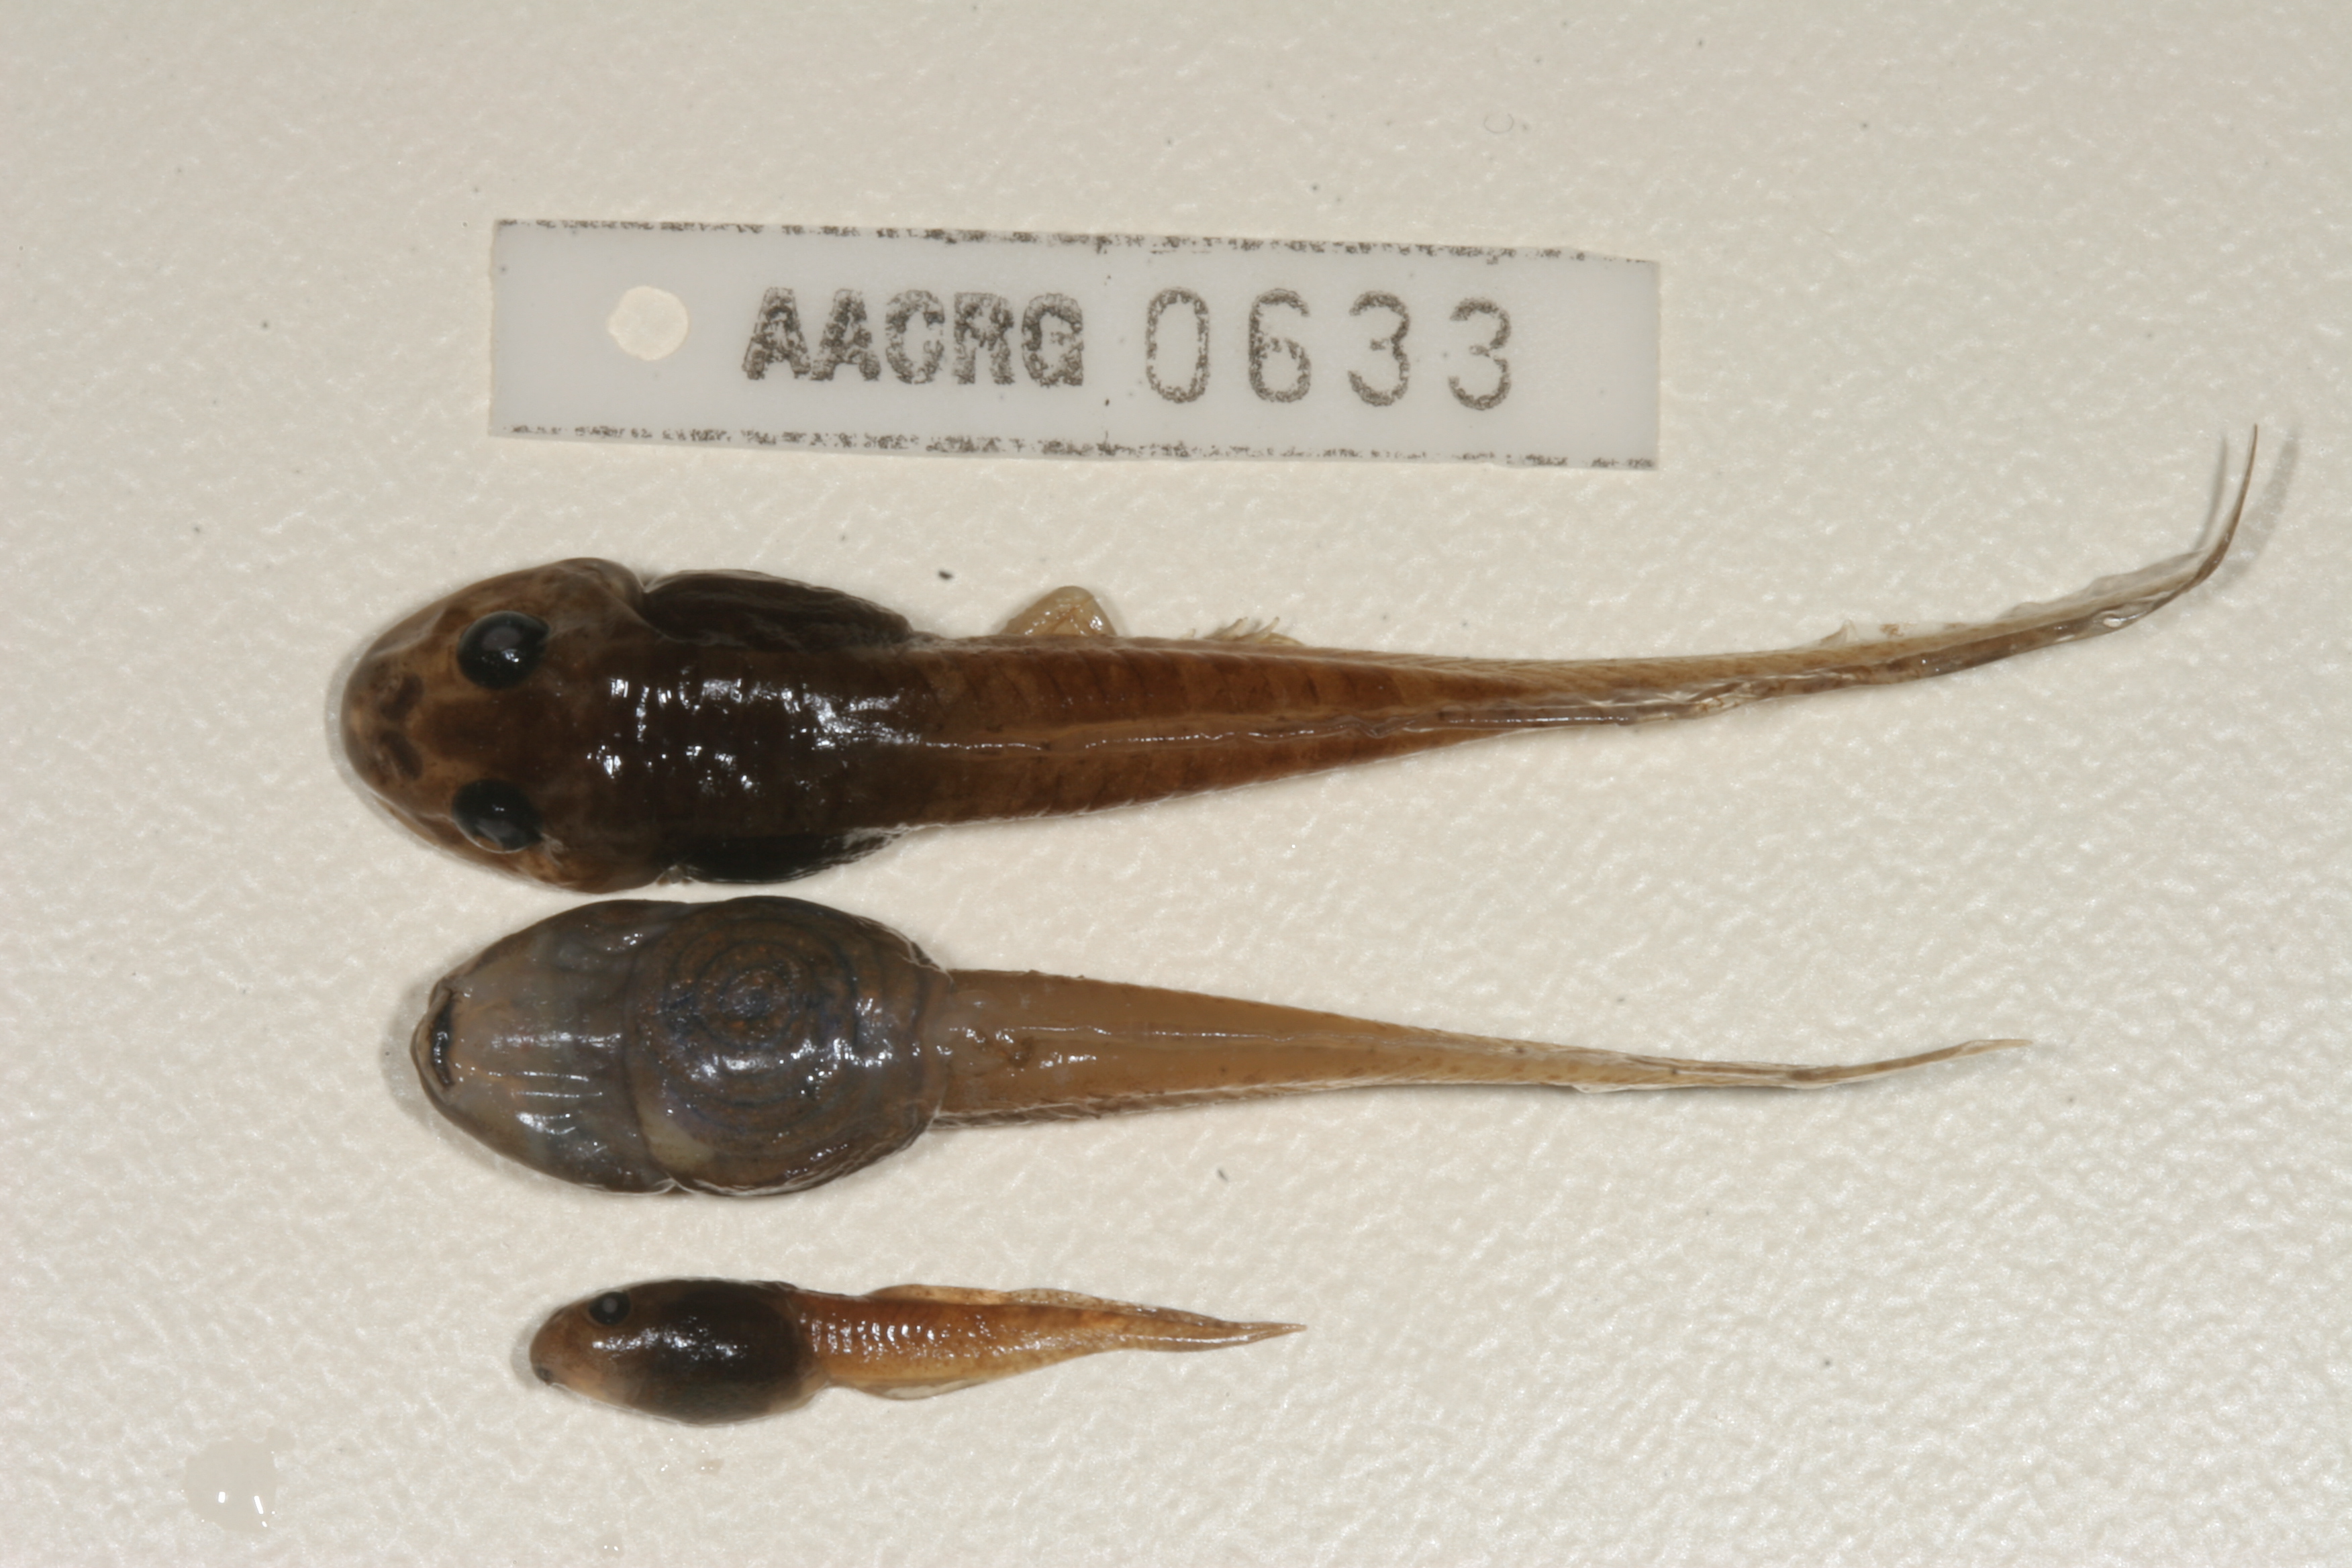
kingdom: Animalia
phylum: Chordata
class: Amphibia
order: Anura
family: Pyxicephalidae
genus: Amietia
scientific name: Amietia angolensis
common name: Dusky-throated frog
